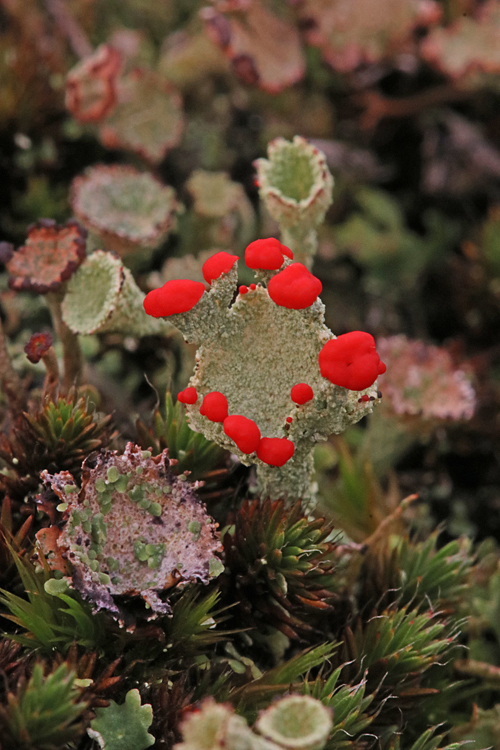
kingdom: Fungi
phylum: Ascomycota
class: Lecanoromycetes
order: Lecanorales
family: Cladoniaceae
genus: Cladonia
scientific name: Cladonia diversa
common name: rød bægerlav
